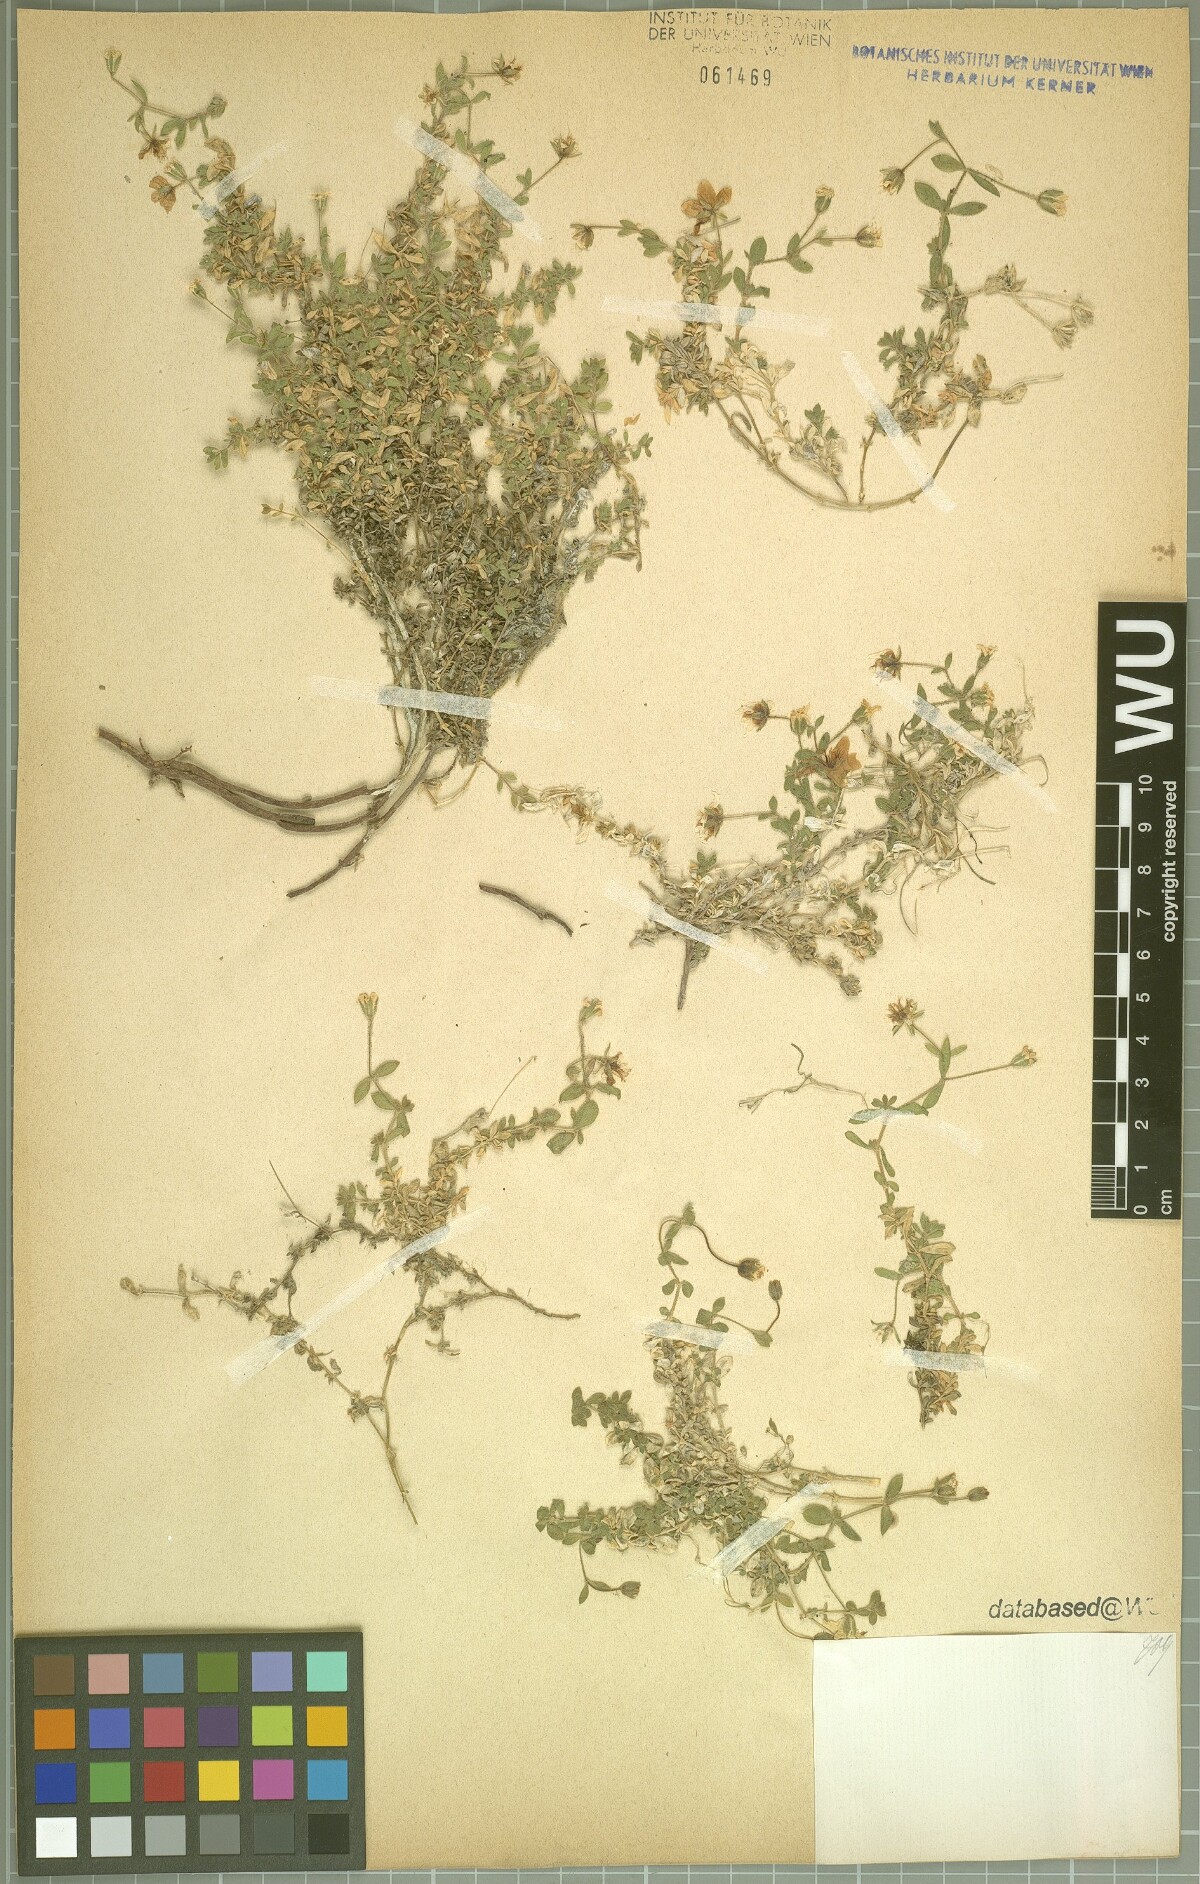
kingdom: Plantae
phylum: Tracheophyta
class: Magnoliopsida
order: Caryophyllales
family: Caryophyllaceae
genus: Arenaria
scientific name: Arenaria huteri
